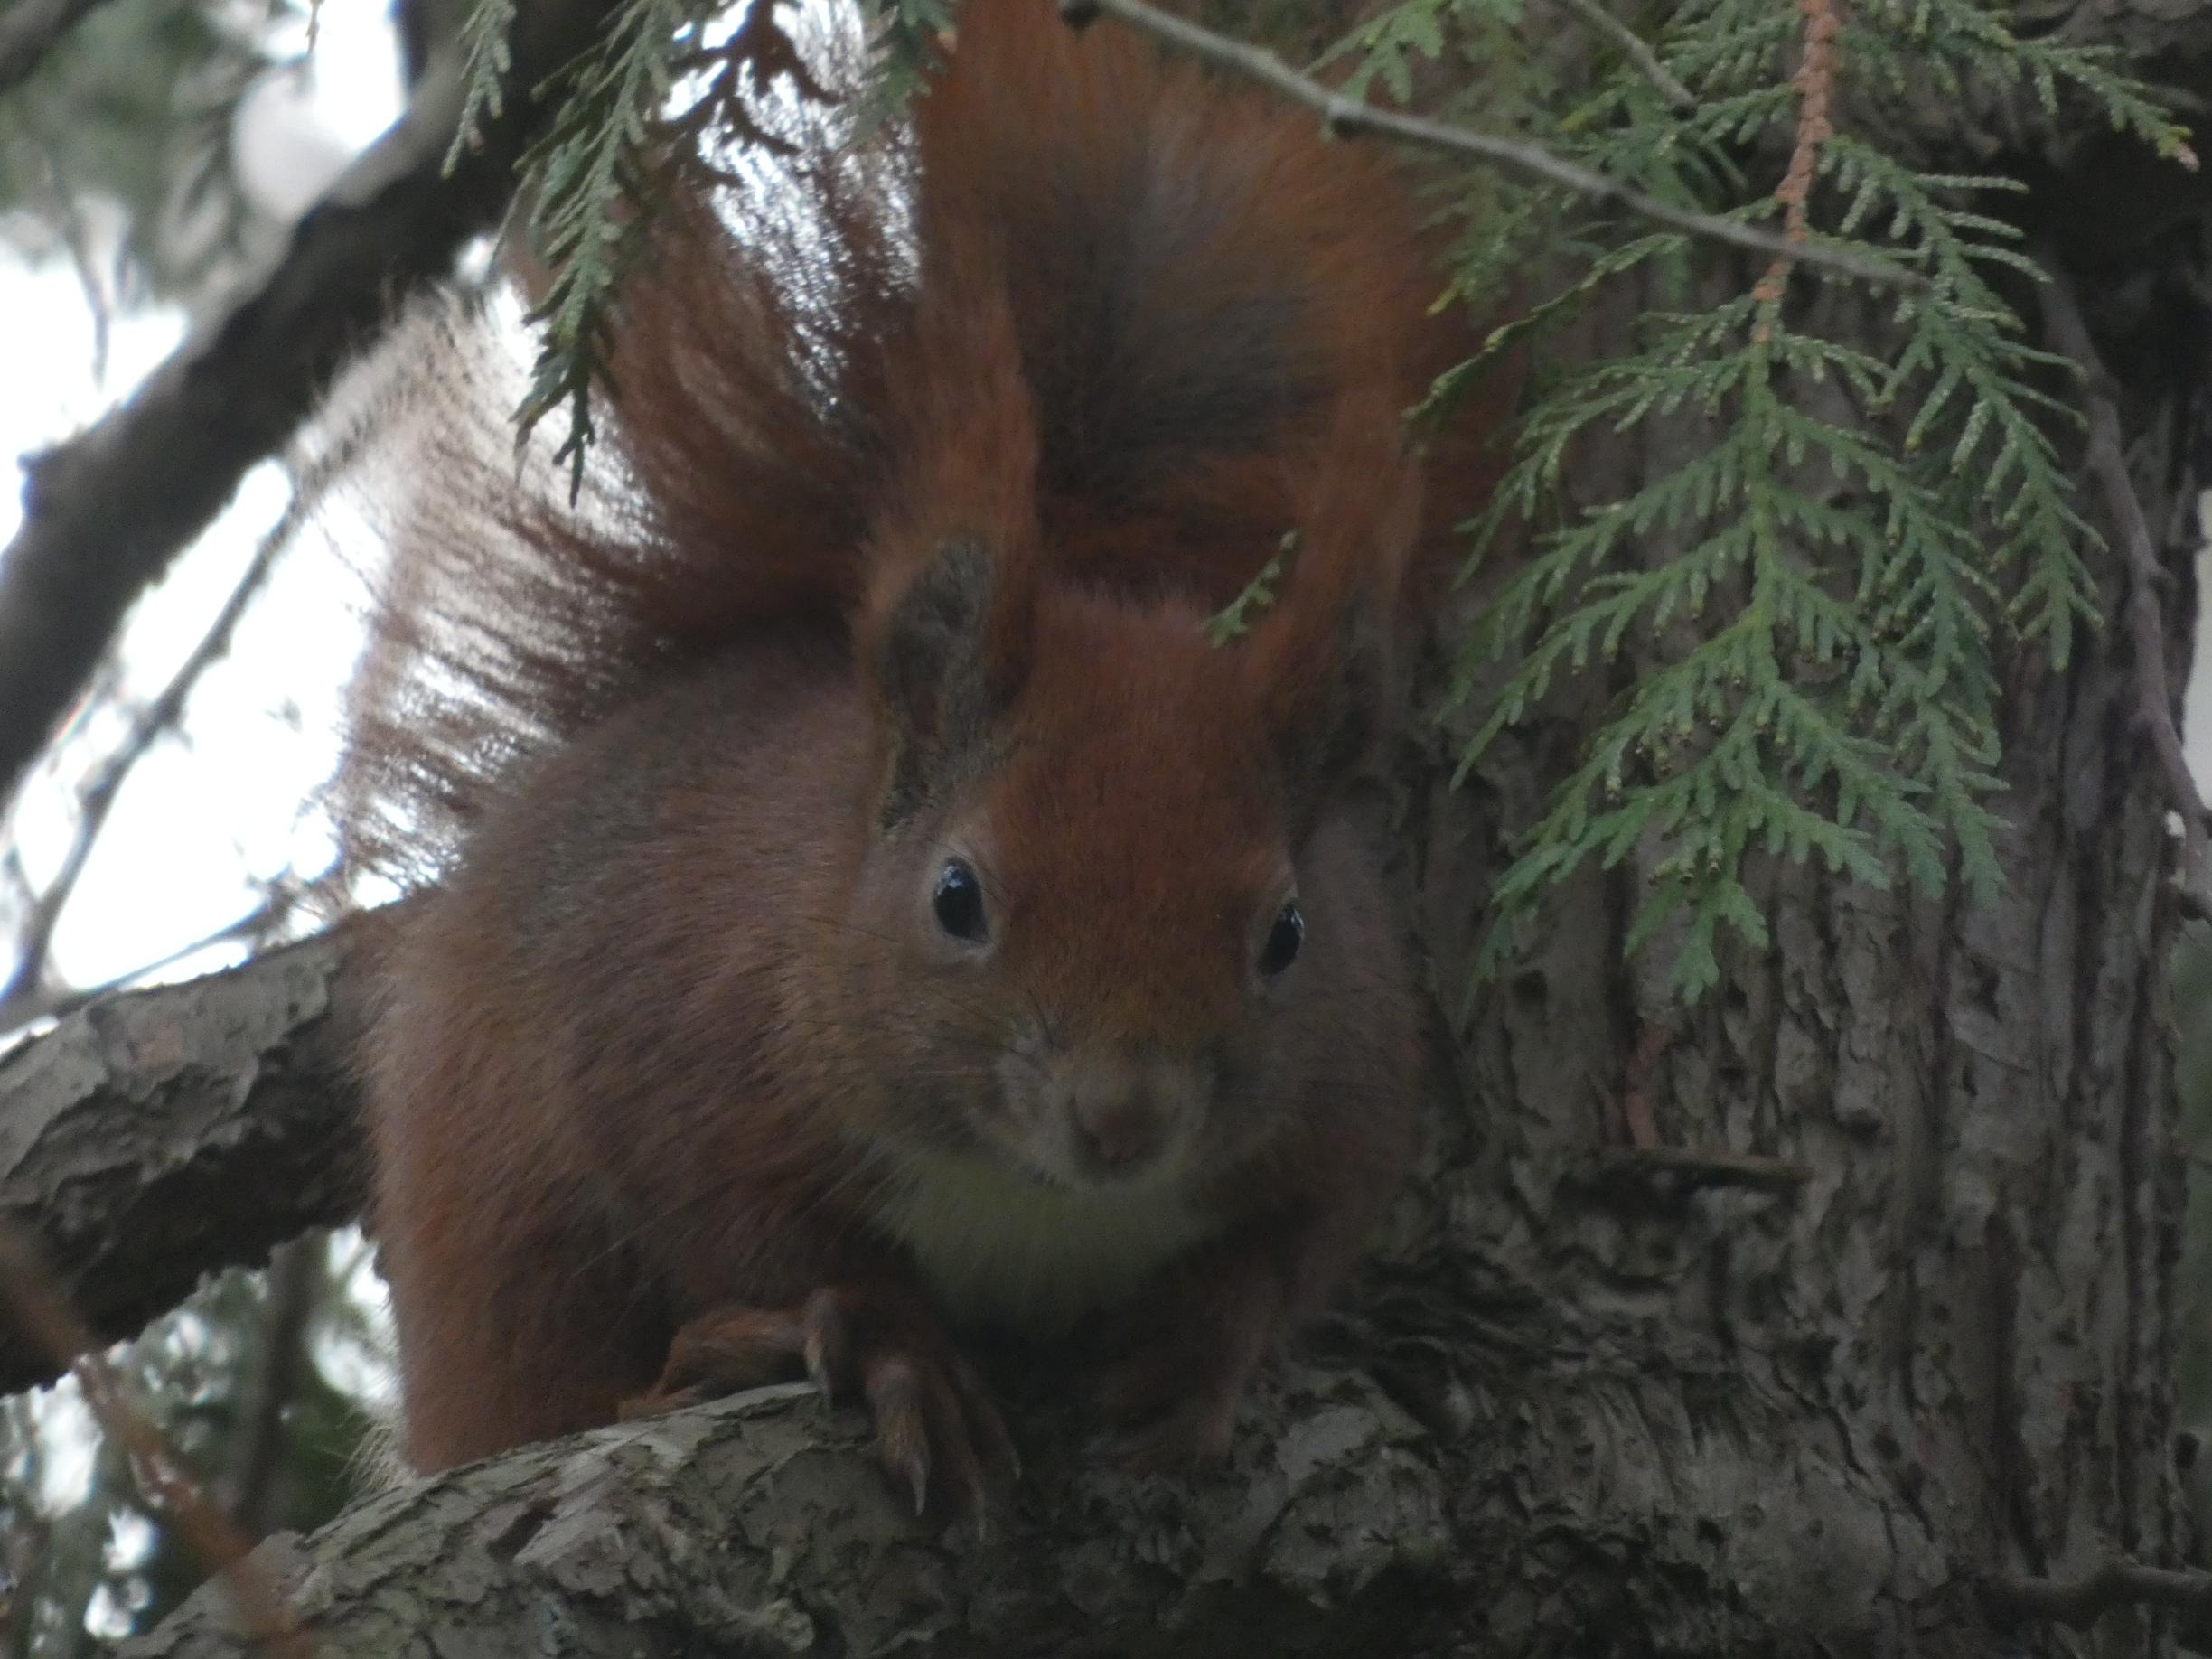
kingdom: Animalia
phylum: Chordata
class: Mammalia
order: Rodentia
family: Sciuridae
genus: Sciurus
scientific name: Sciurus vulgaris
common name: Egern
